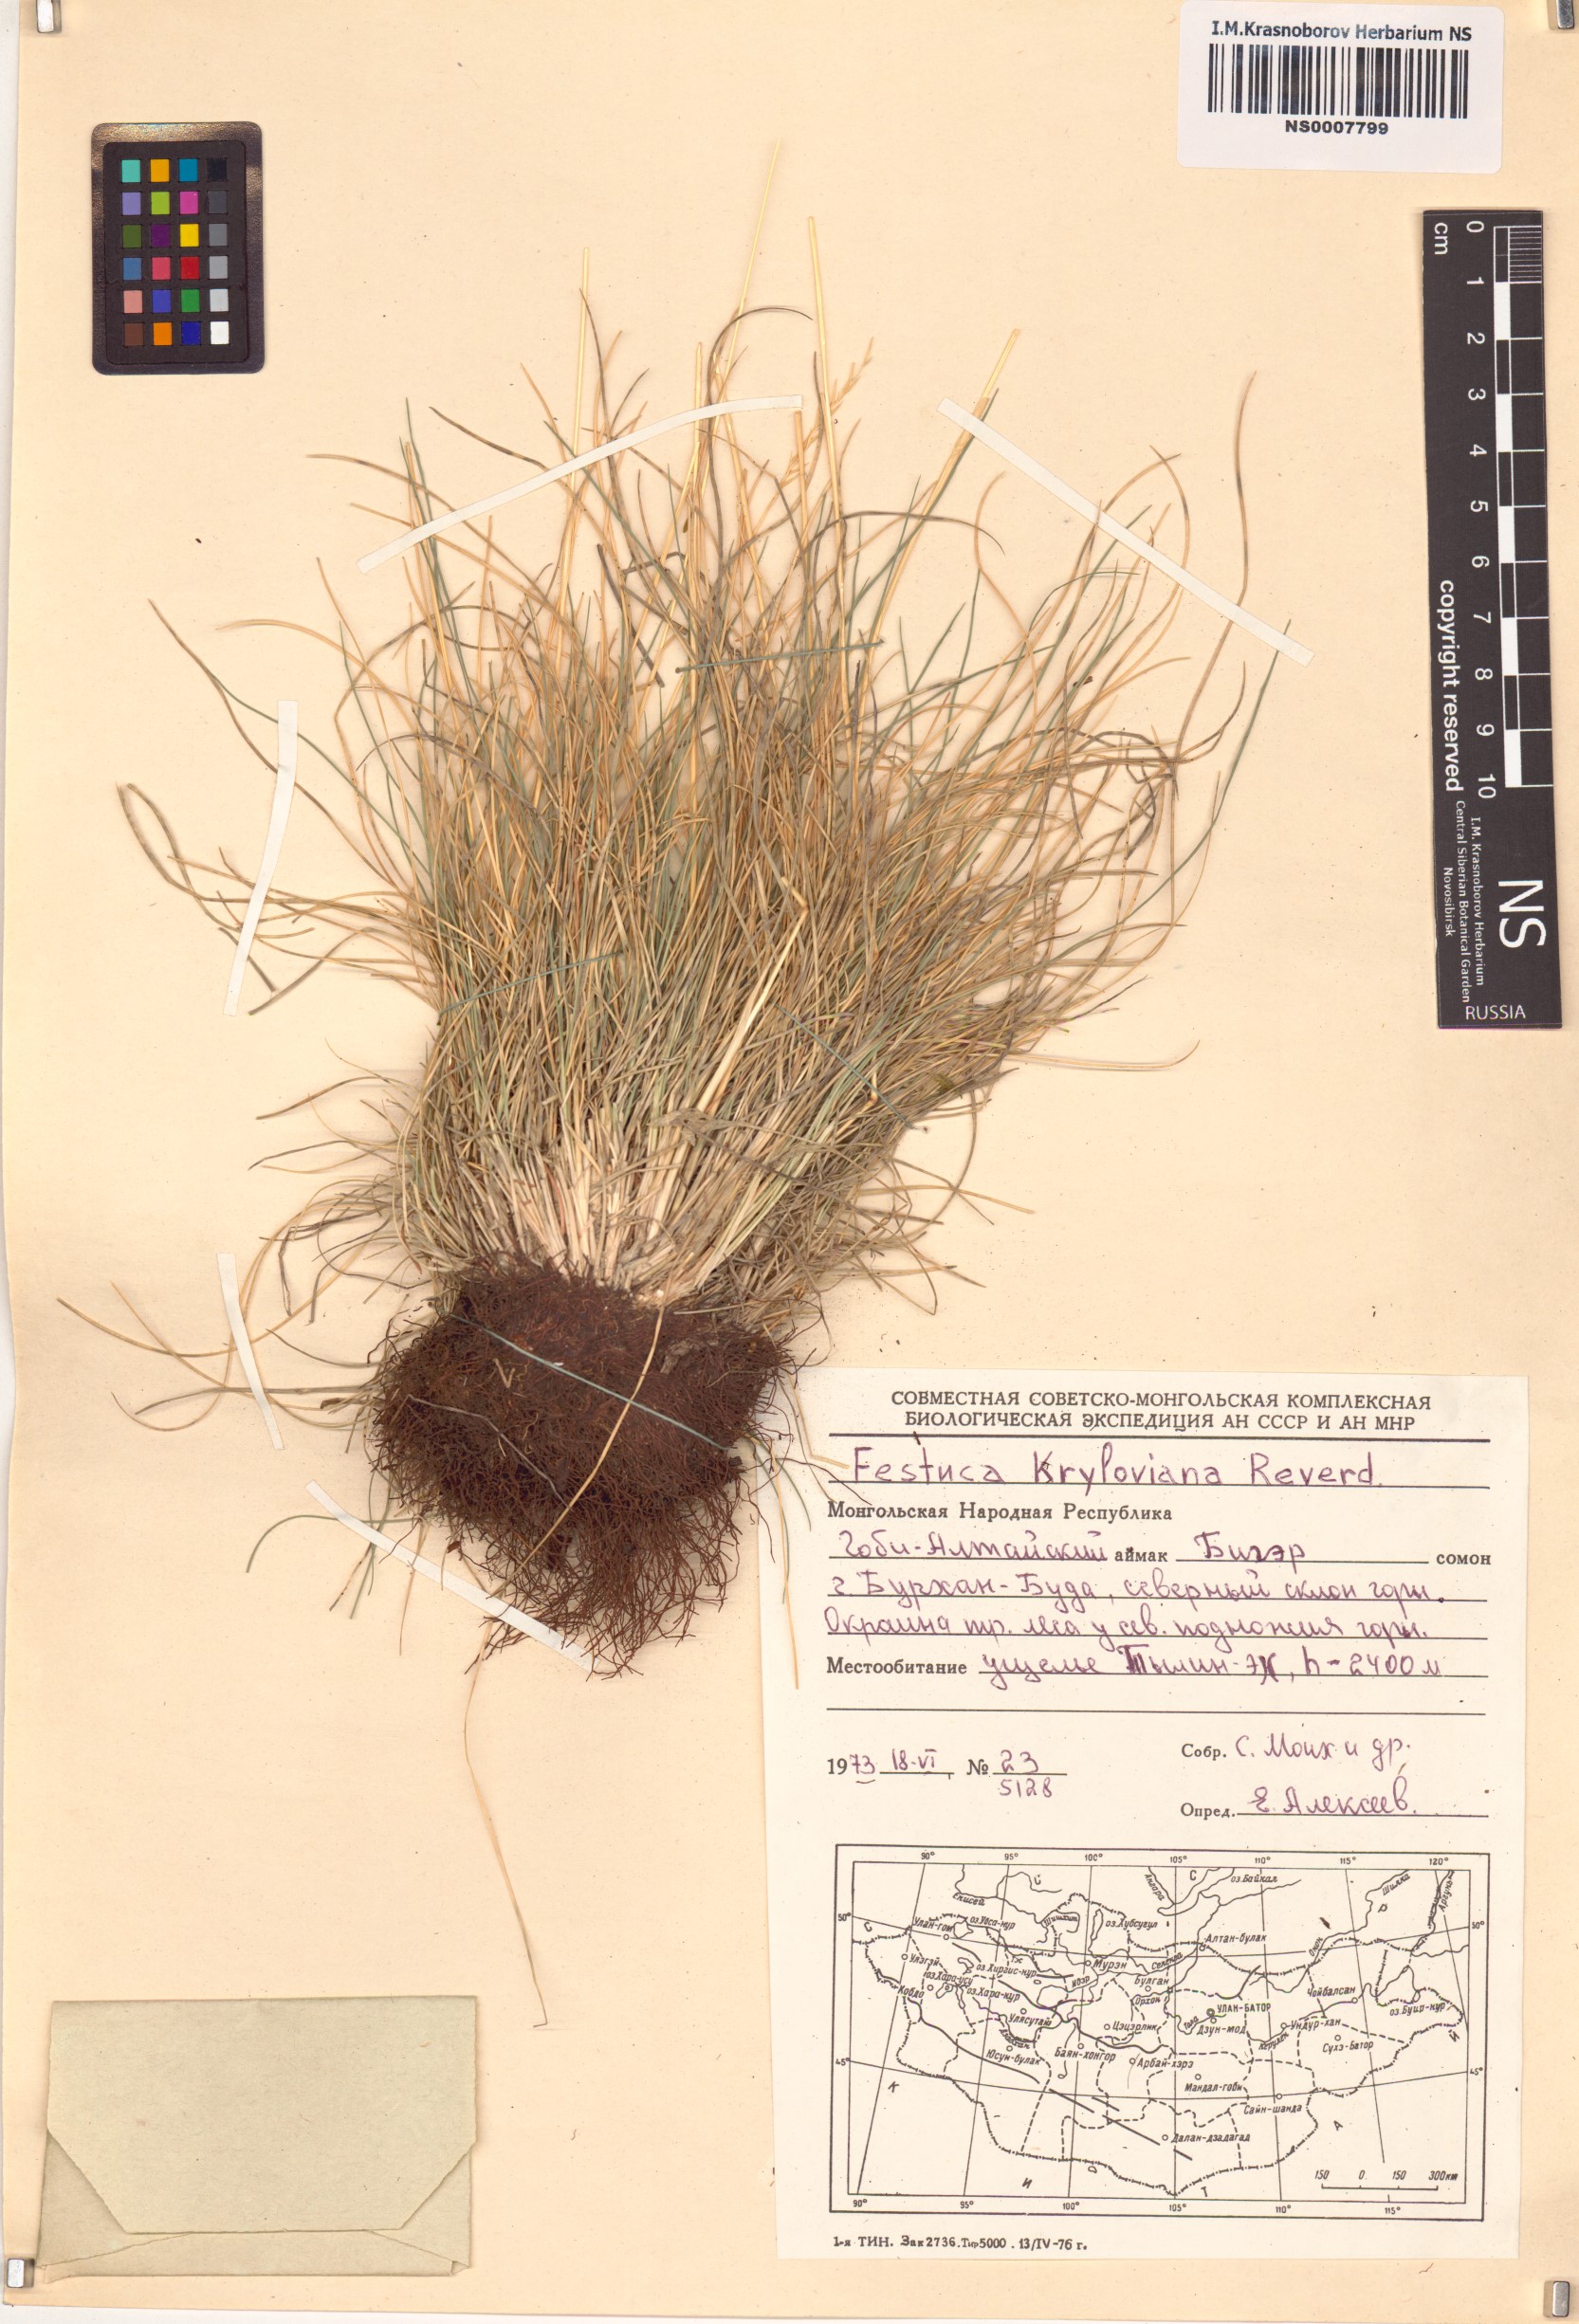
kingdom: Plantae
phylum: Tracheophyta
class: Liliopsida
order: Poales
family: Poaceae
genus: Festuca
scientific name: Festuca kryloviana
